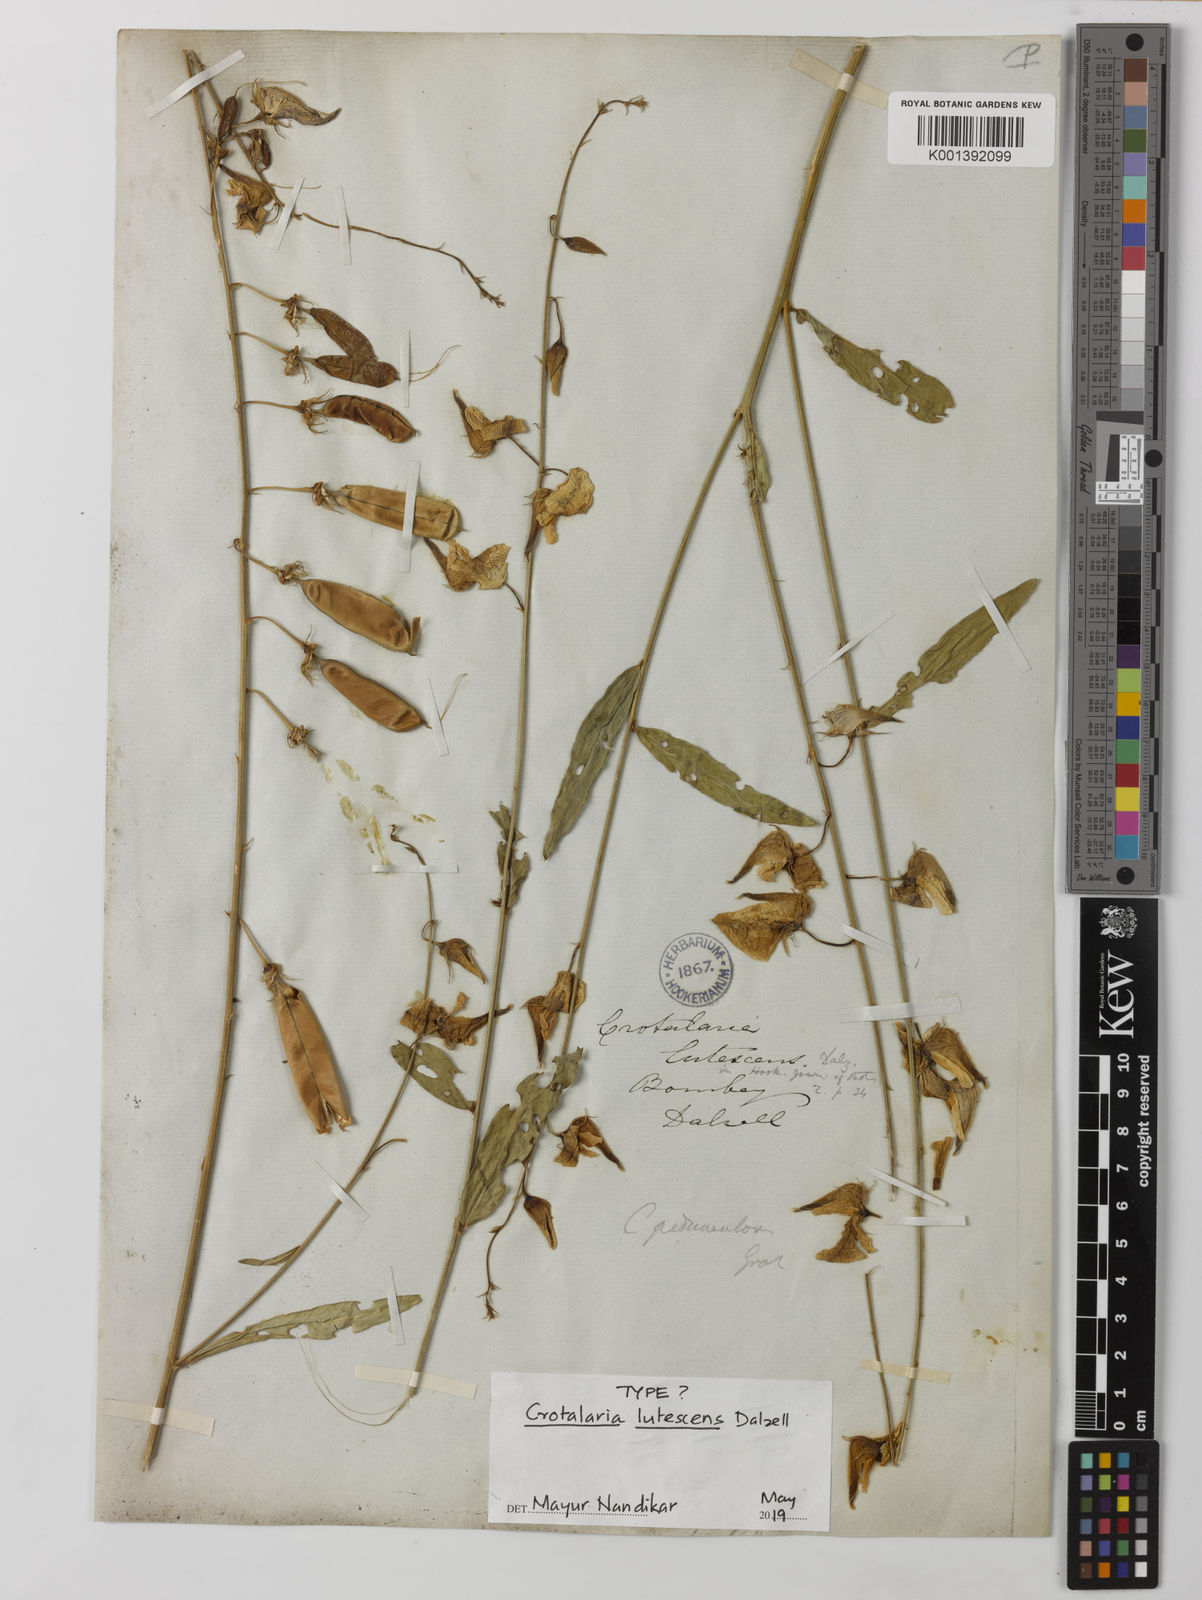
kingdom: Plantae
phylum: Tracheophyta
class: Magnoliopsida
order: Fabales
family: Fabaceae
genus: Crotalaria
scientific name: Crotalaria lutescens
